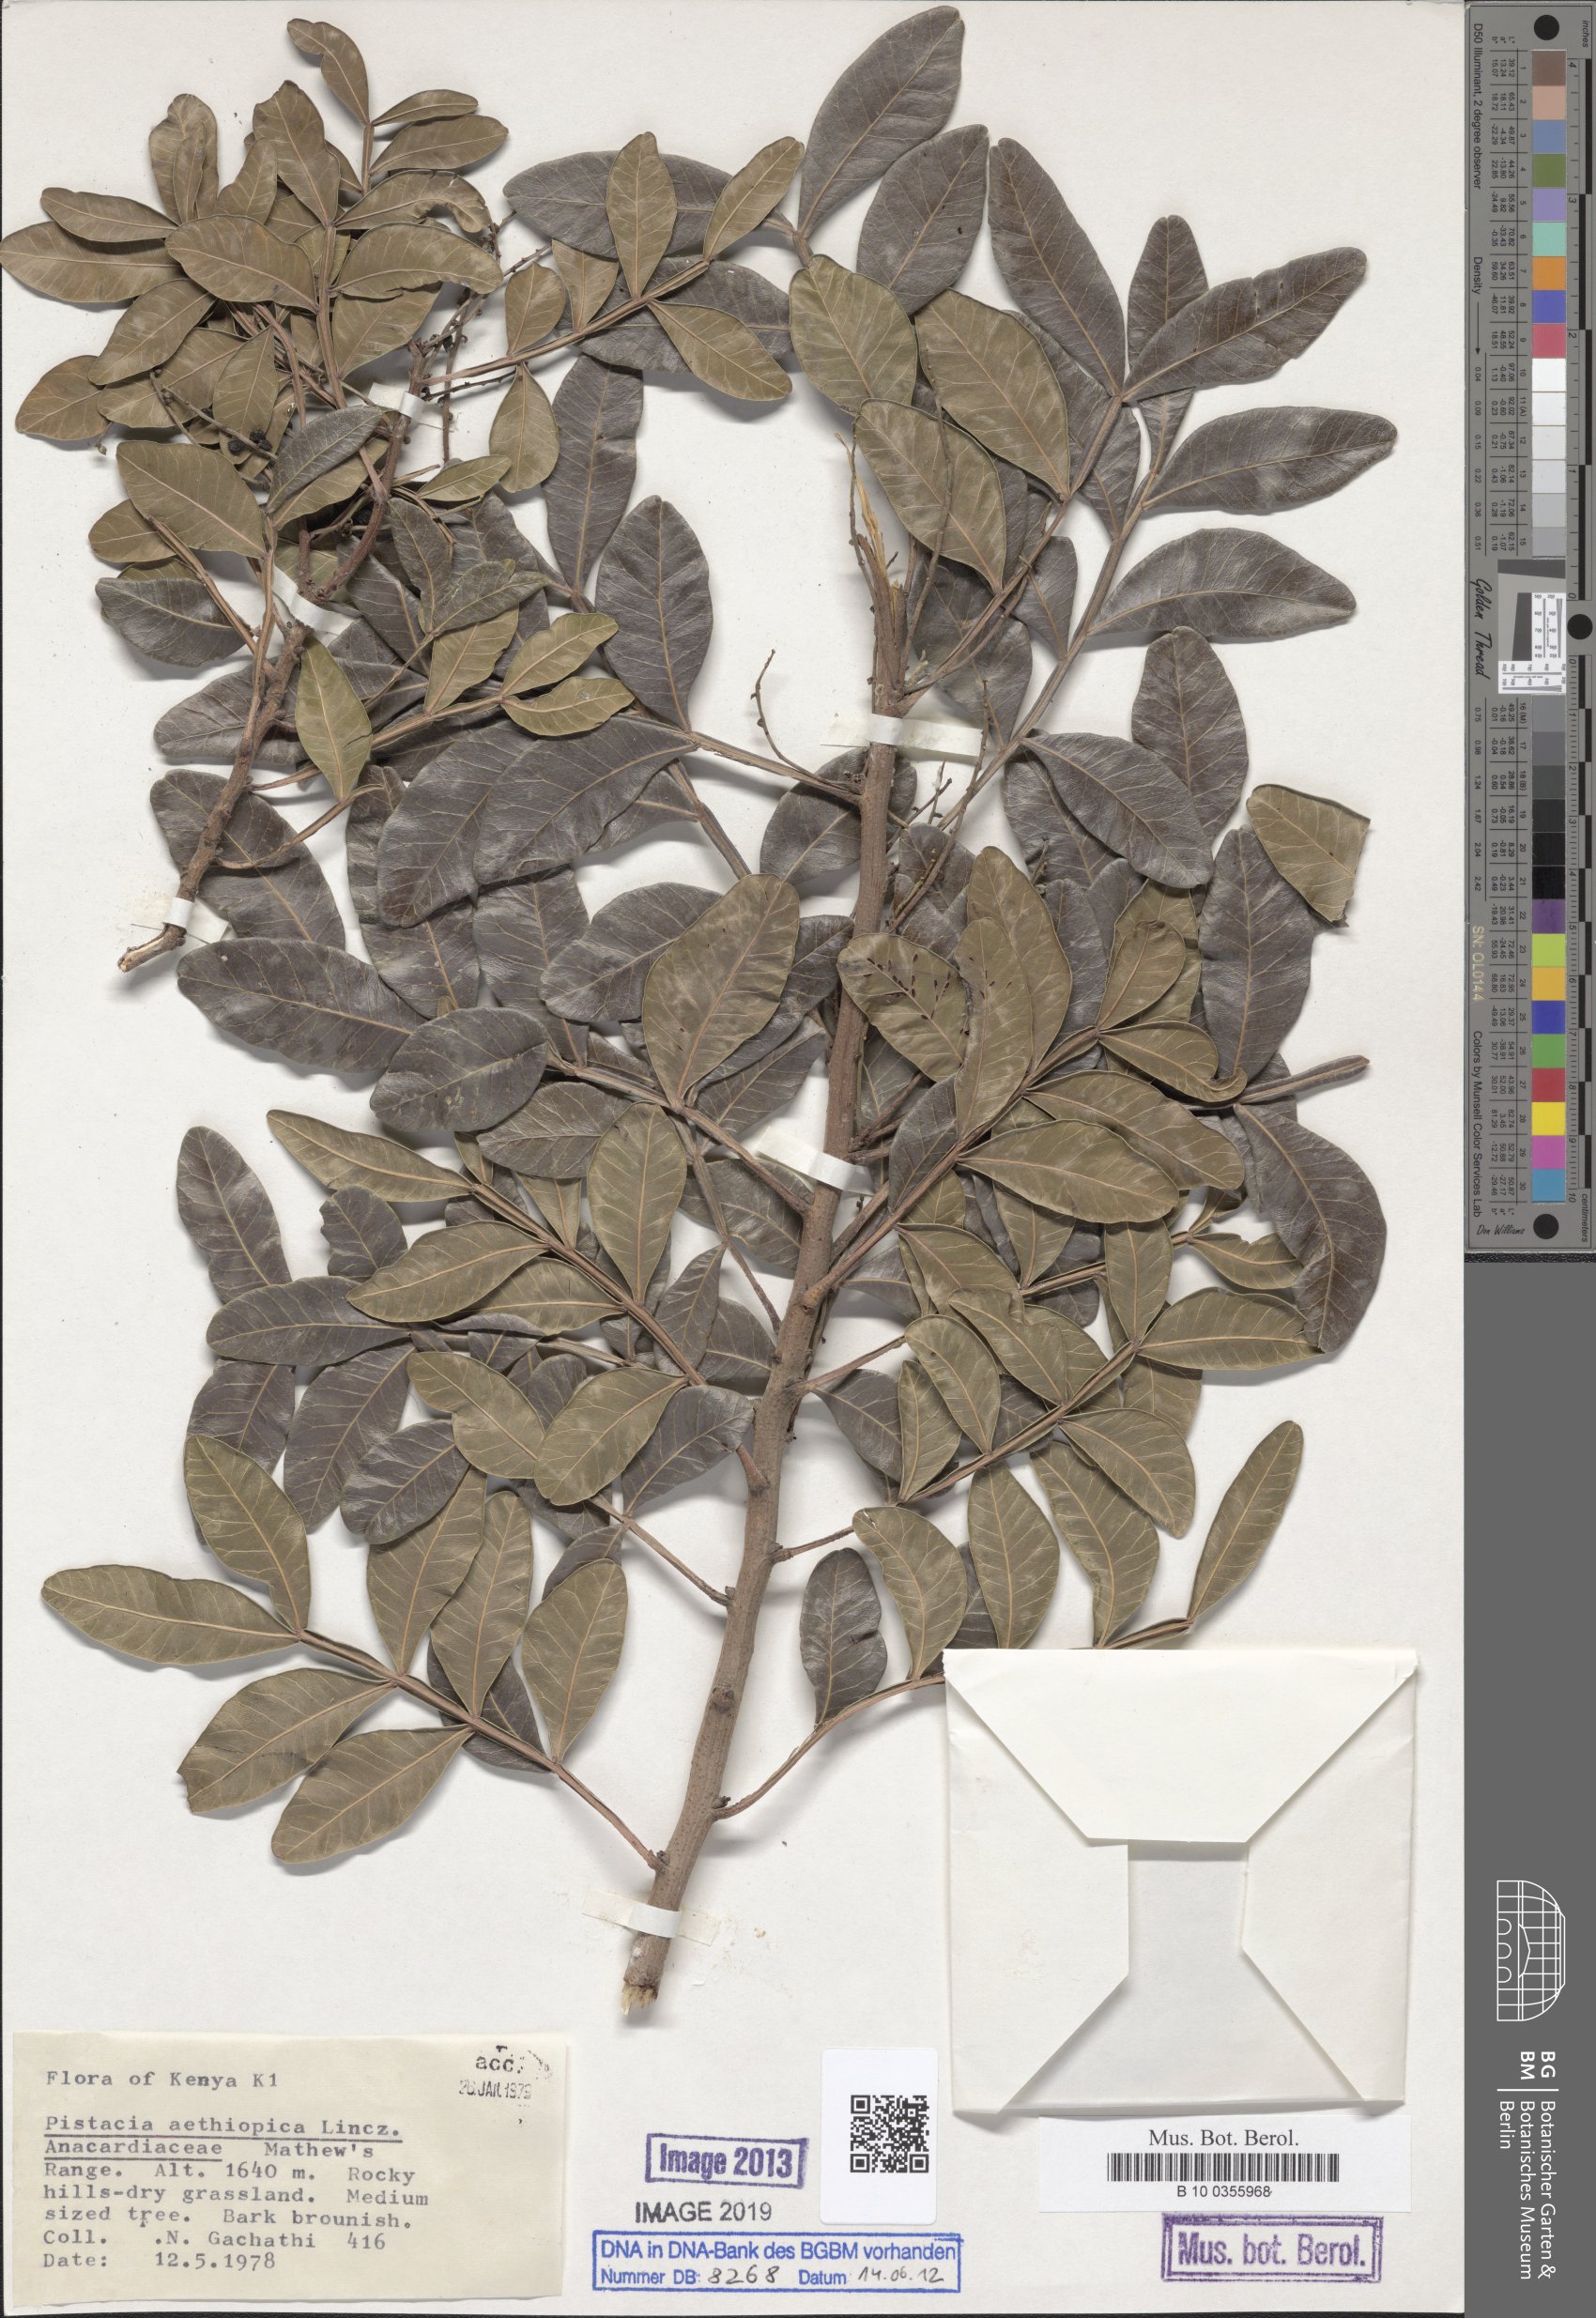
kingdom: Plantae
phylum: Tracheophyta
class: Magnoliopsida
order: Sapindales
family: Anacardiaceae
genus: Pistacia
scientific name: Pistacia lentiscus
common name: Lentisk
